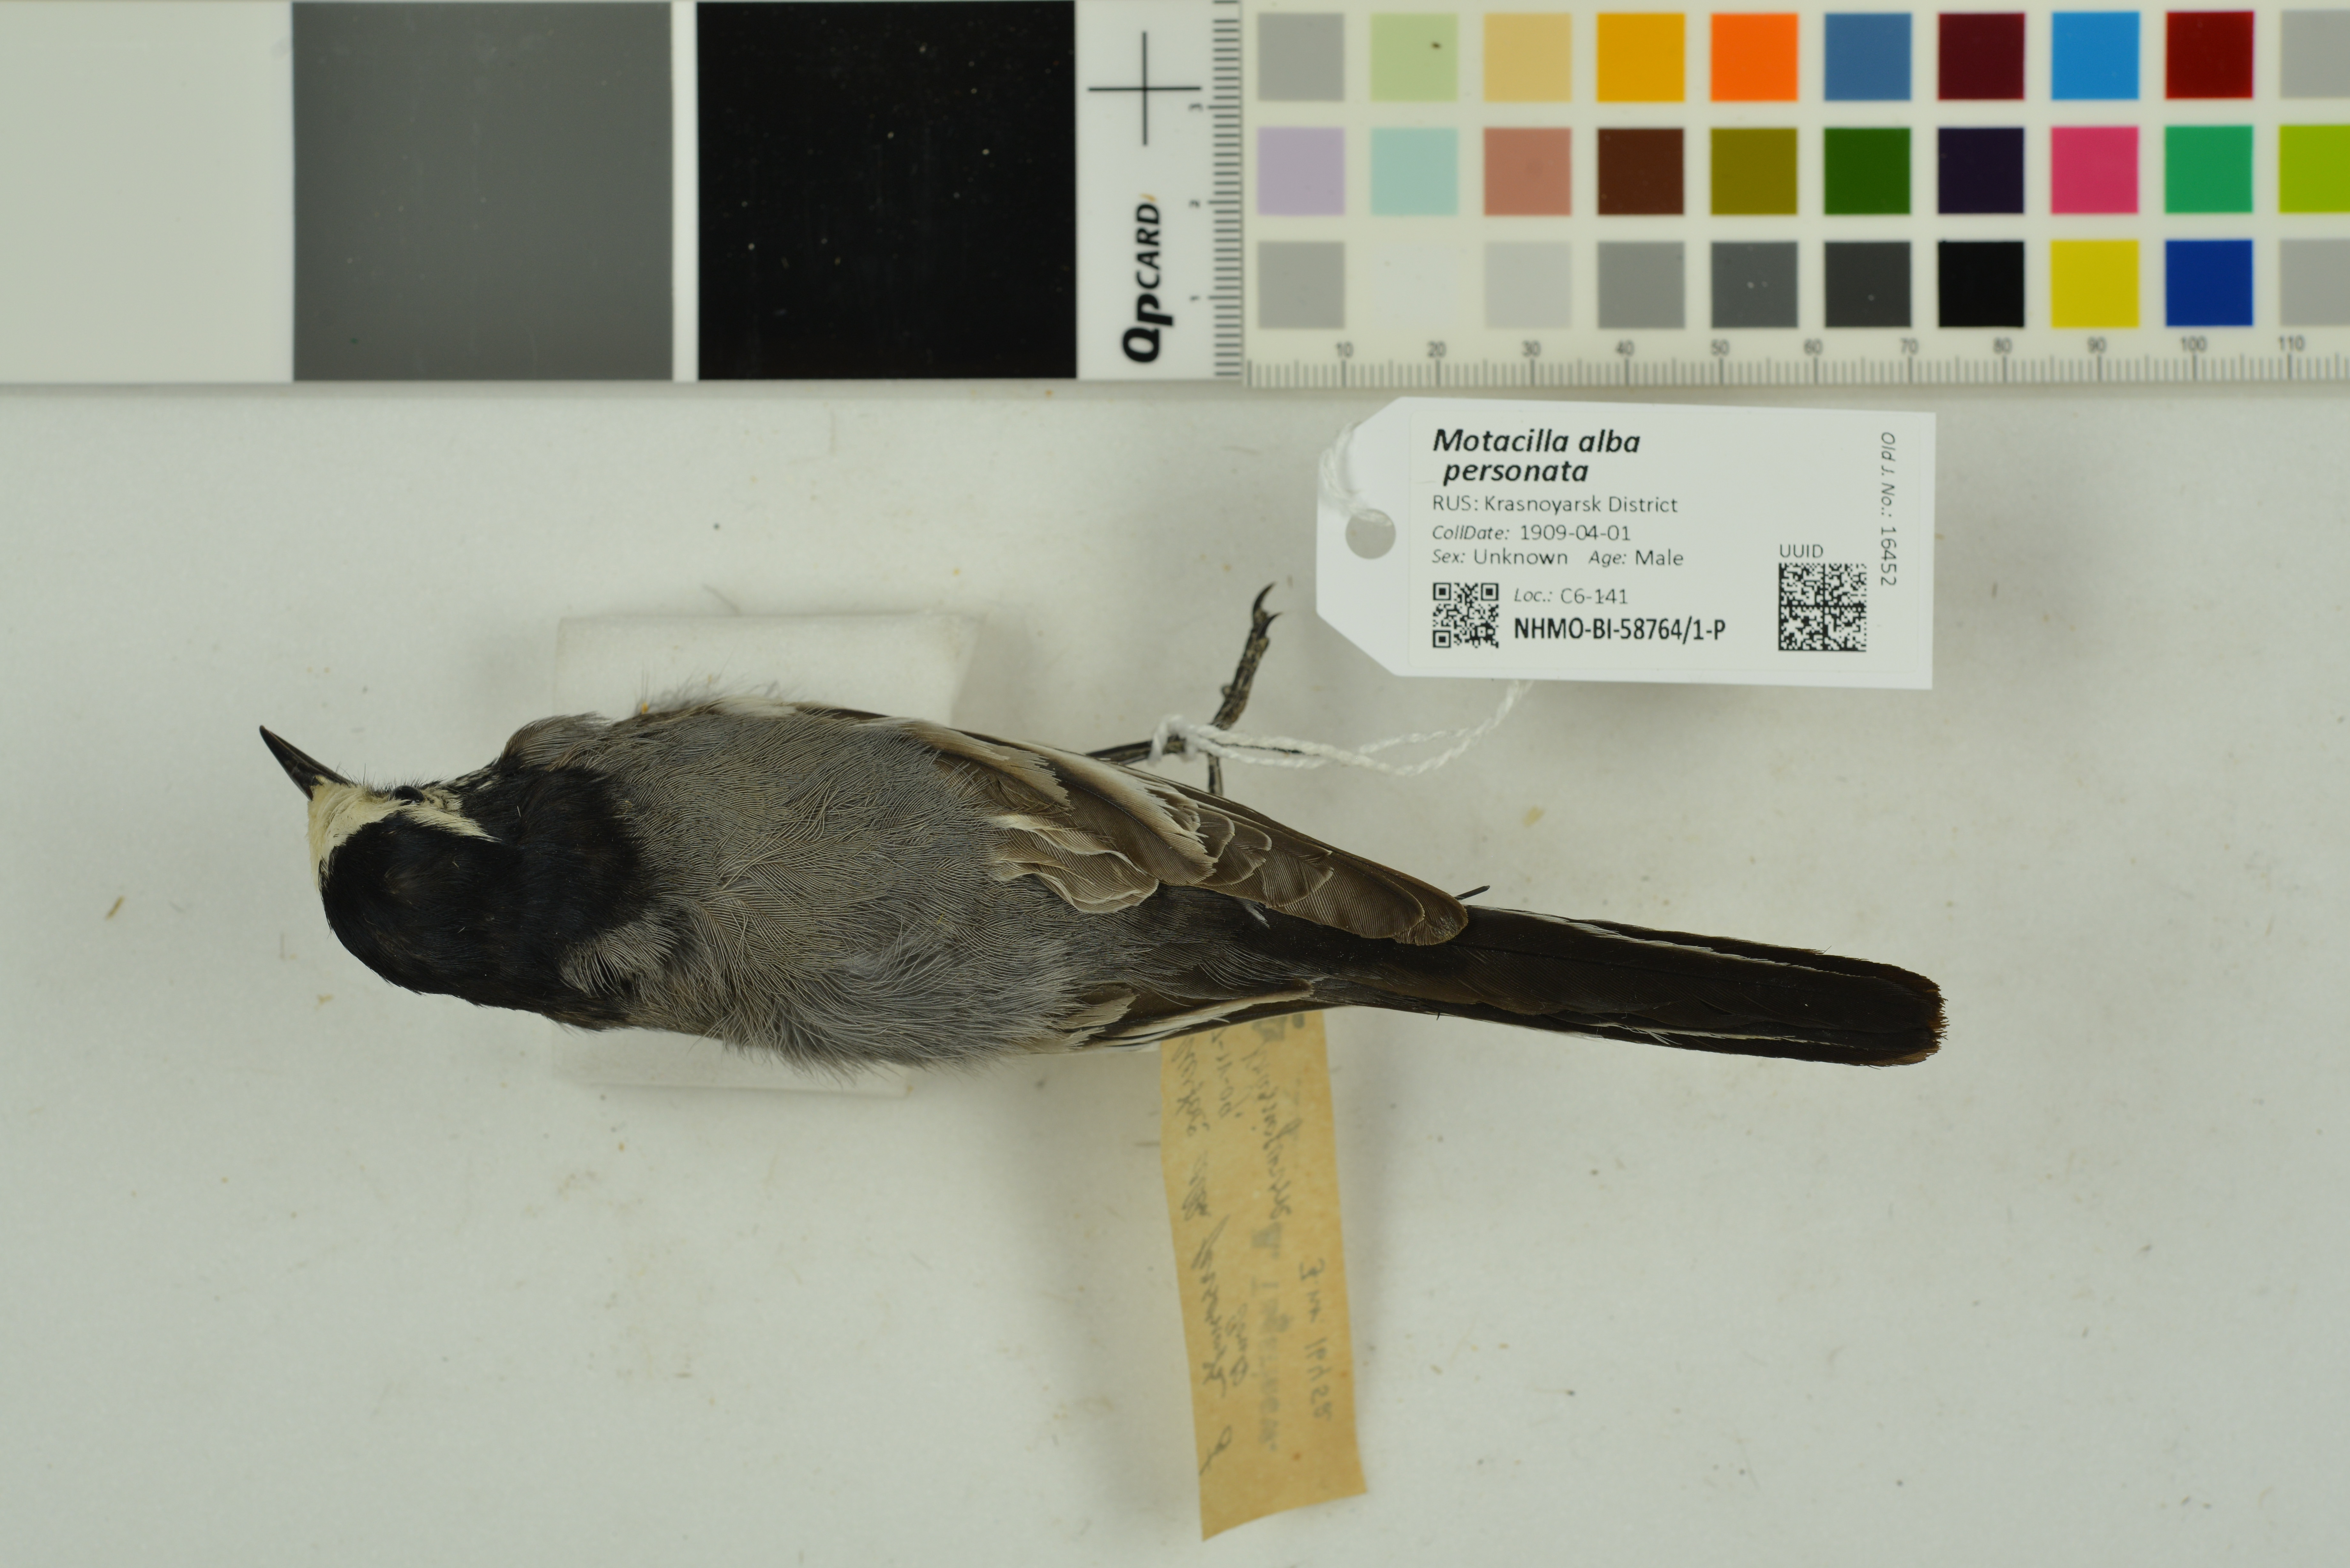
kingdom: Animalia
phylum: Chordata
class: Aves
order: Passeriformes
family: Motacillidae
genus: Motacilla
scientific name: Motacilla alba
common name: White wagtail
